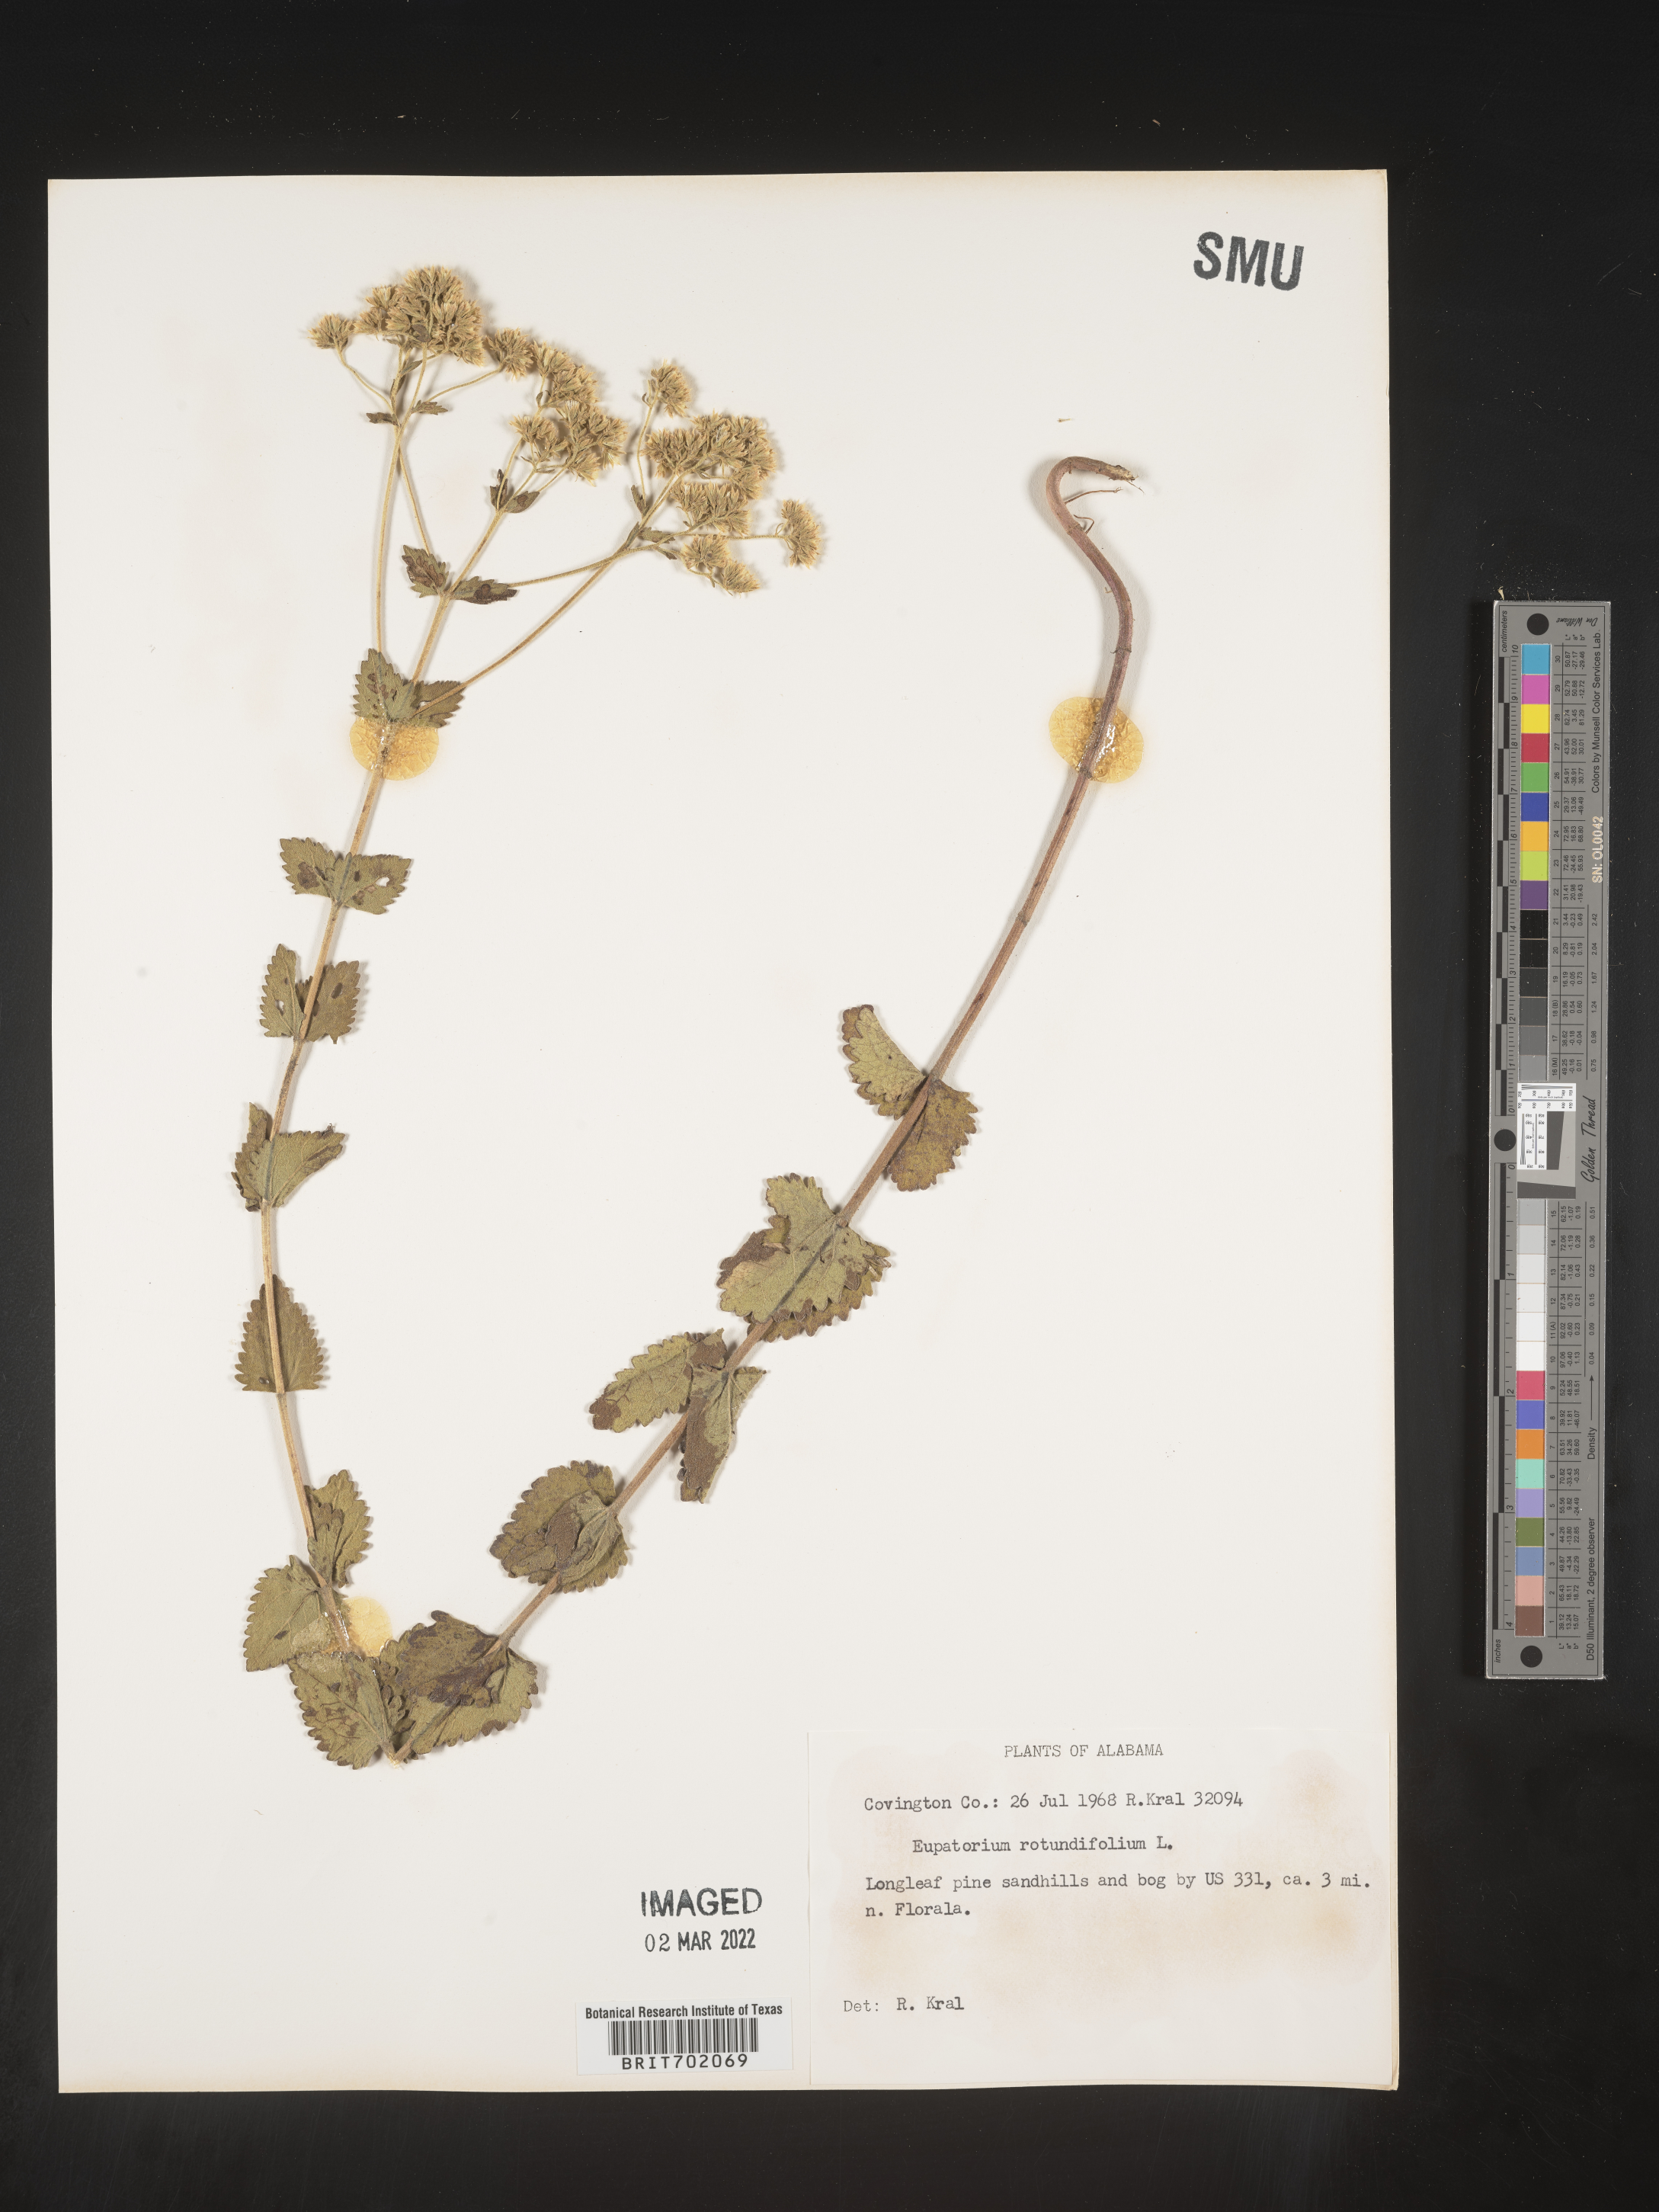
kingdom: Plantae
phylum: Tracheophyta
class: Magnoliopsida
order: Asterales
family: Asteraceae
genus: Eupatorium
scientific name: Eupatorium rotundifolium
